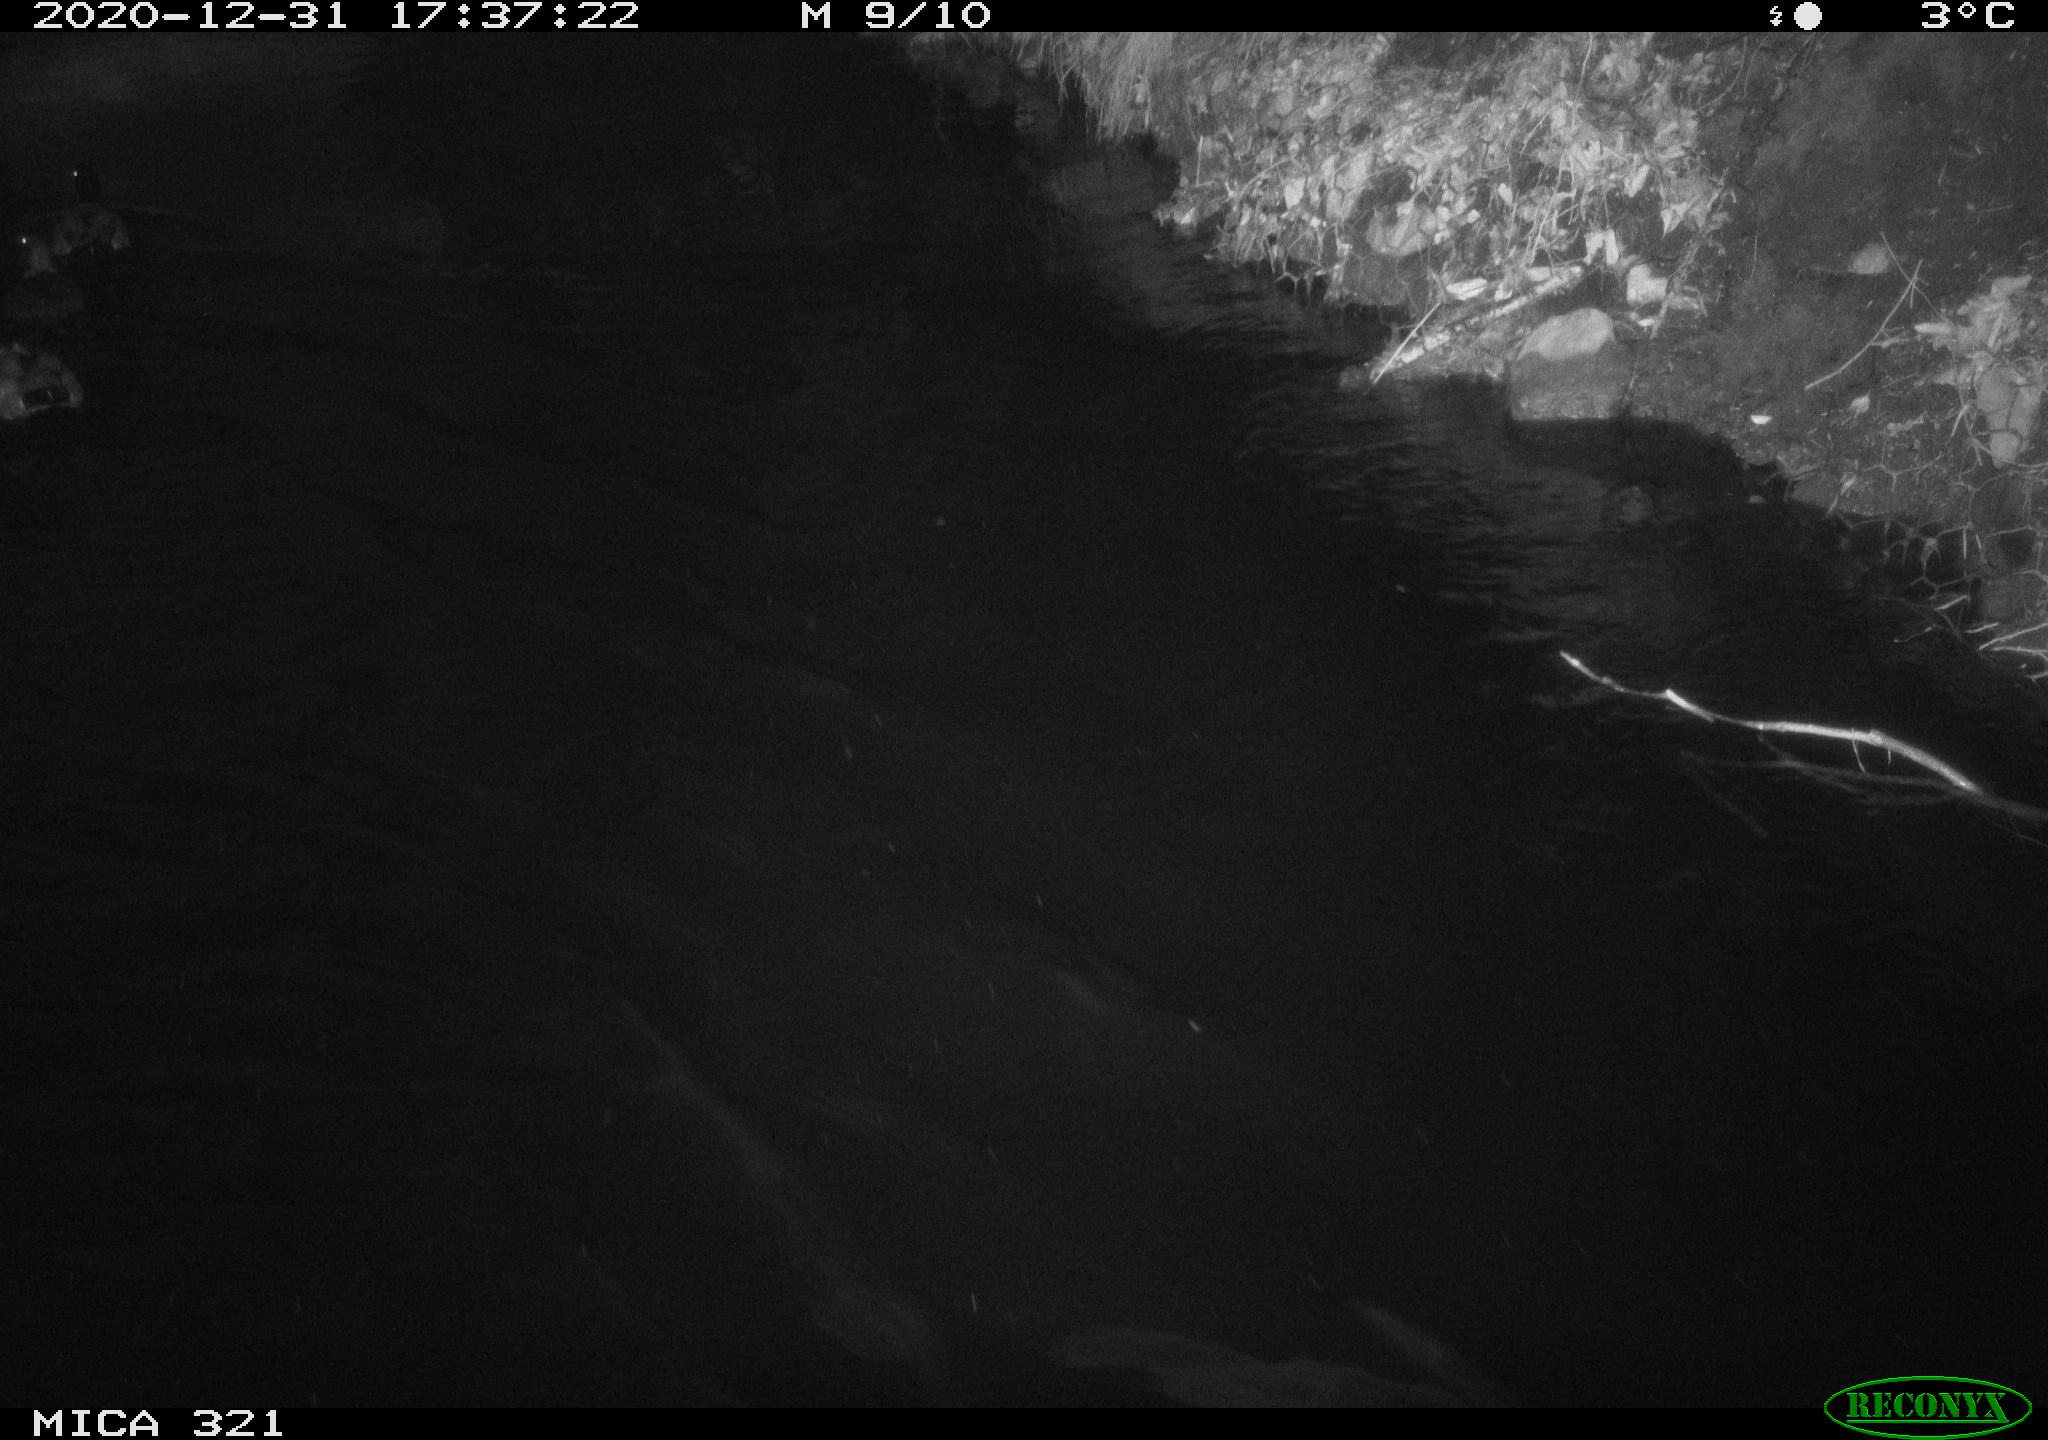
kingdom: Animalia
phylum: Chordata
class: Aves
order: Anseriformes
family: Anatidae
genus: Anas
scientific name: Anas platyrhynchos
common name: Mallard
